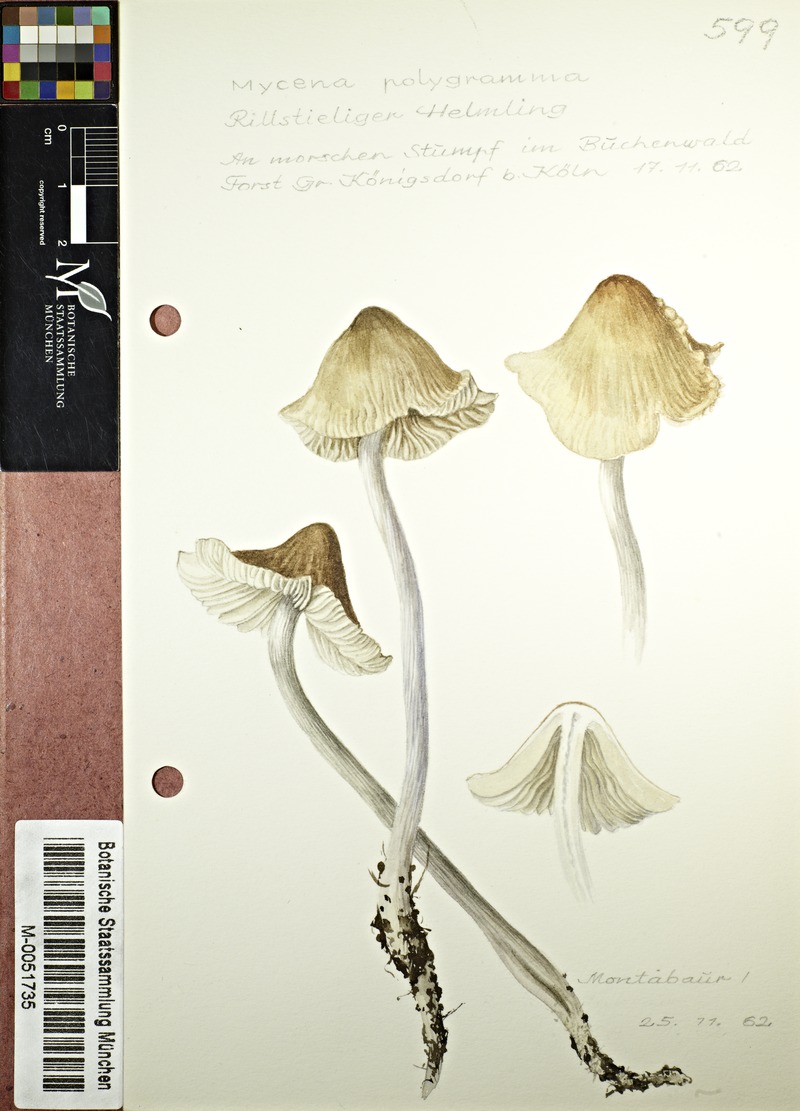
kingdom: Fungi
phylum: Basidiomycota
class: Agaricomycetes
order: Agaricales
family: Mycenaceae
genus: Mycena
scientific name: Mycena polygramma
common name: Grooved bonnet
